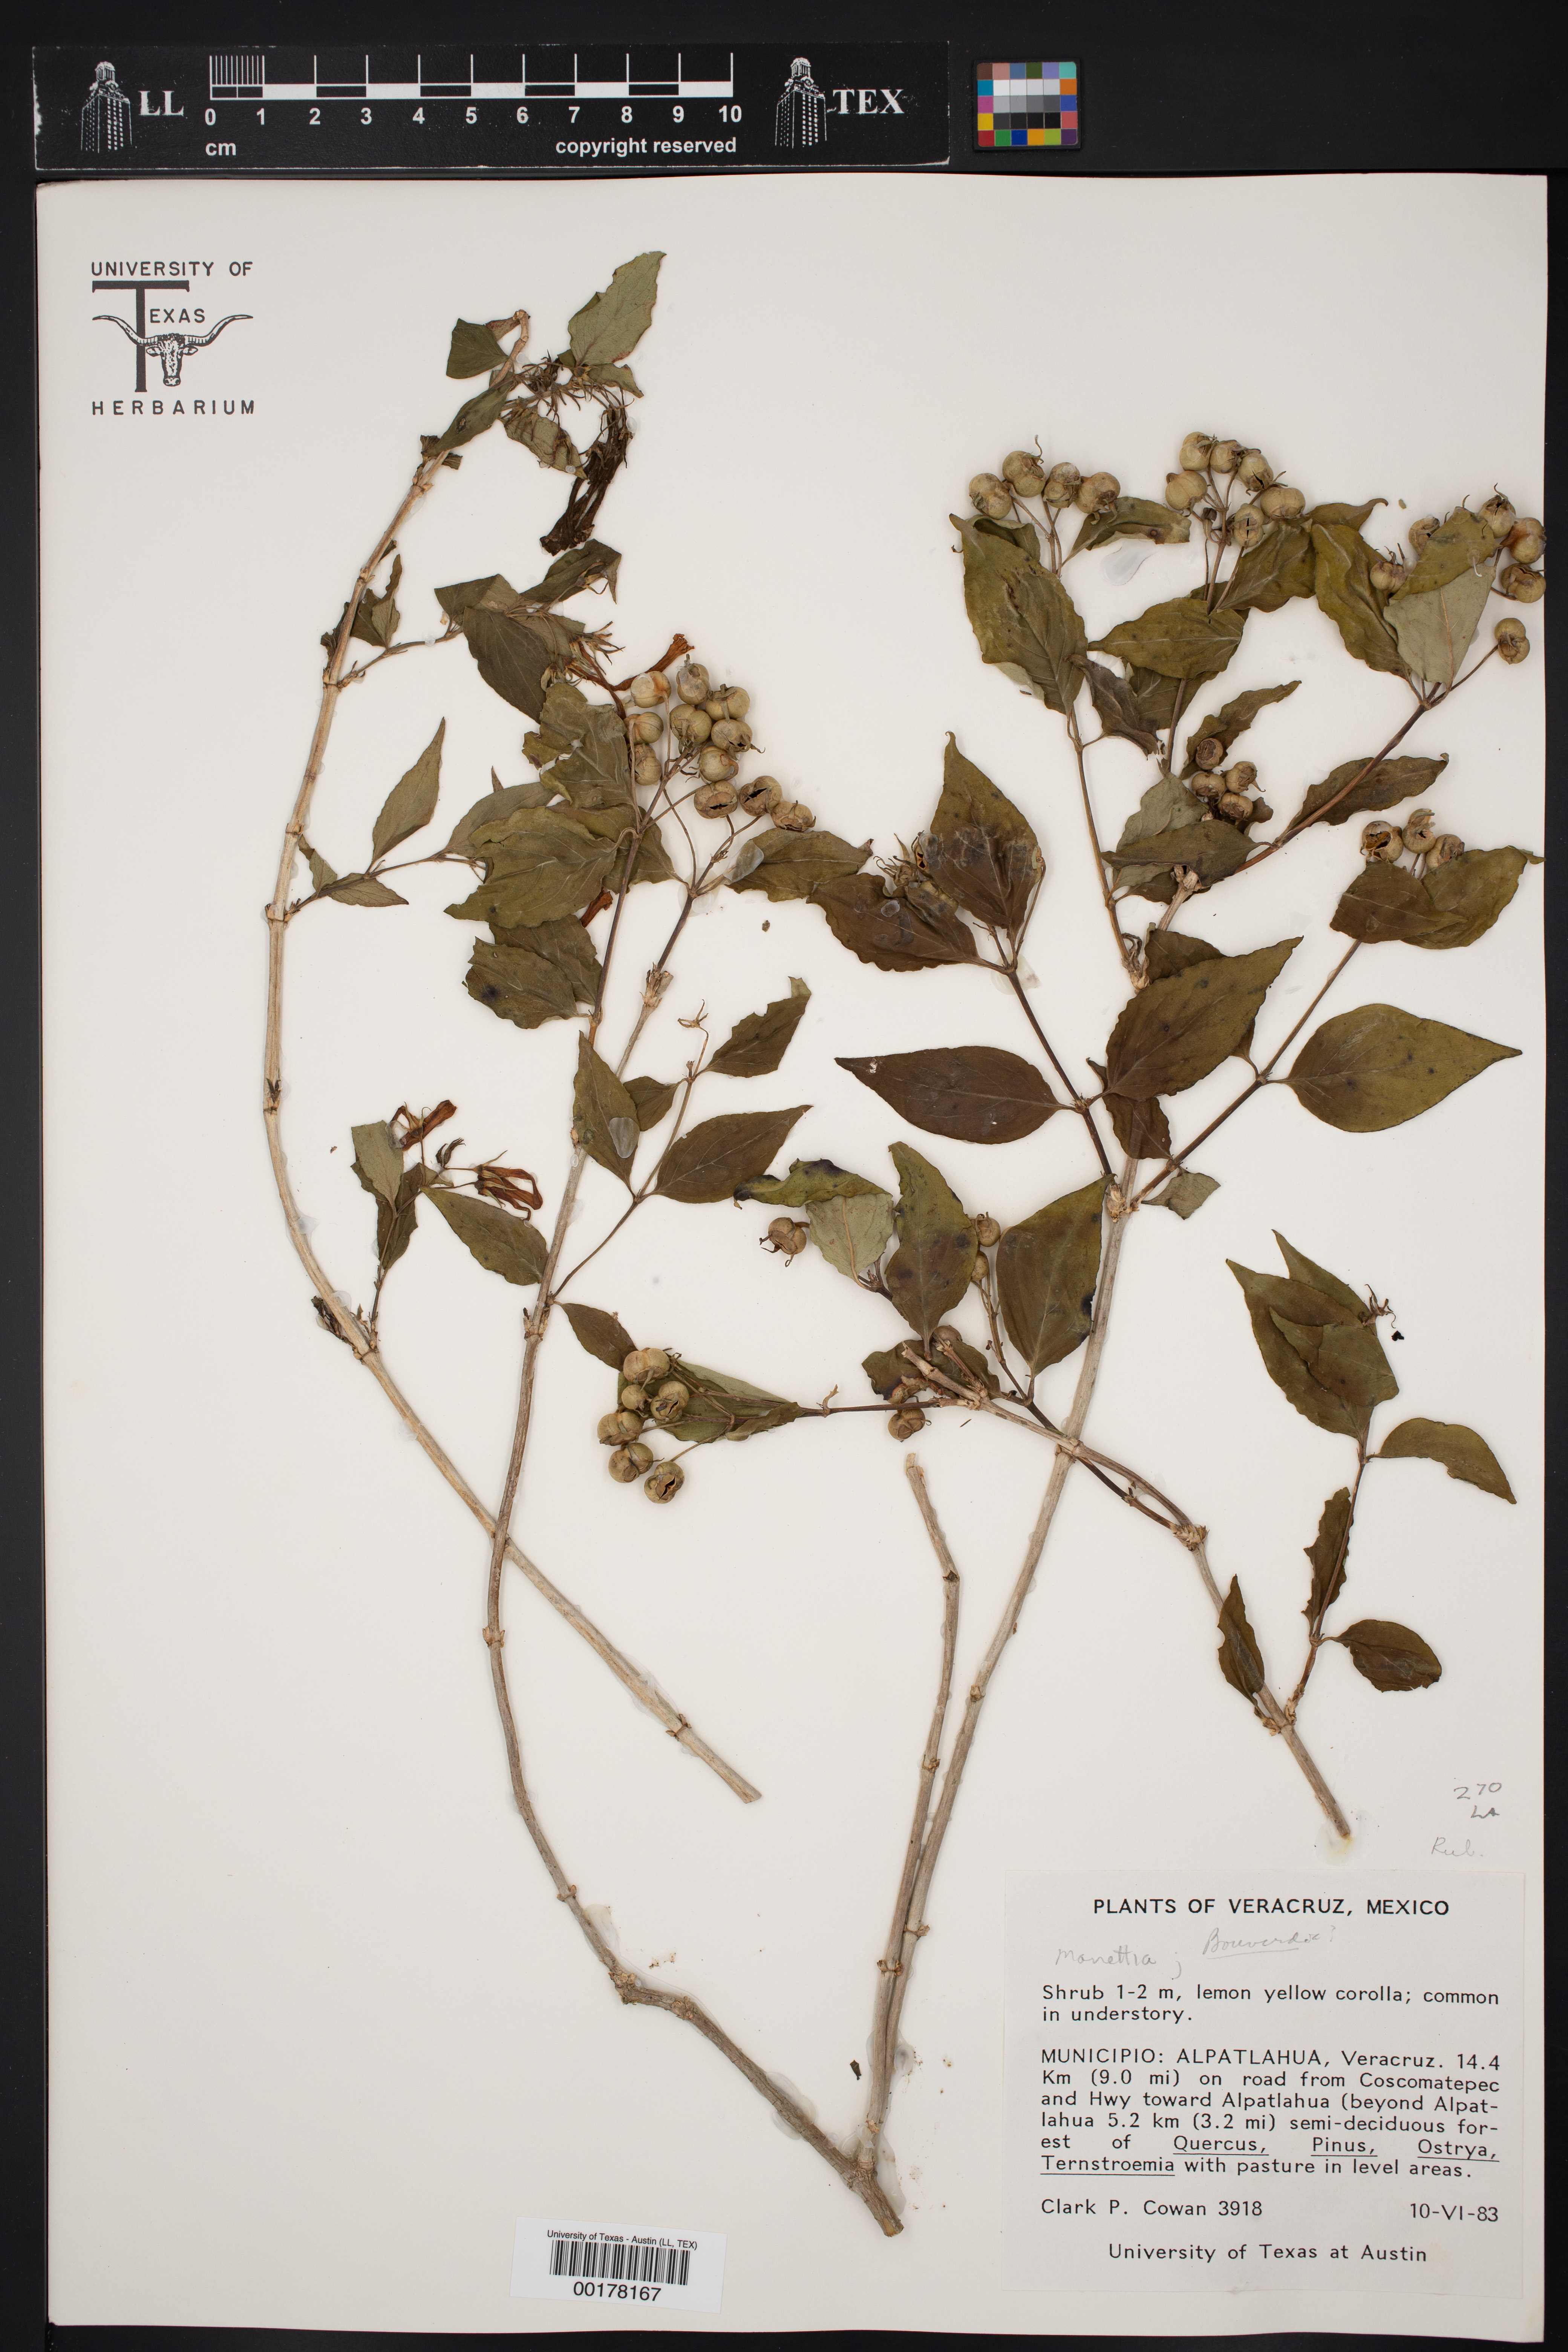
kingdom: Plantae
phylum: Tracheophyta
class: Magnoliopsida
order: Gentianales
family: Rubiaceae
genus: Bouvardia
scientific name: Bouvardia laevis
